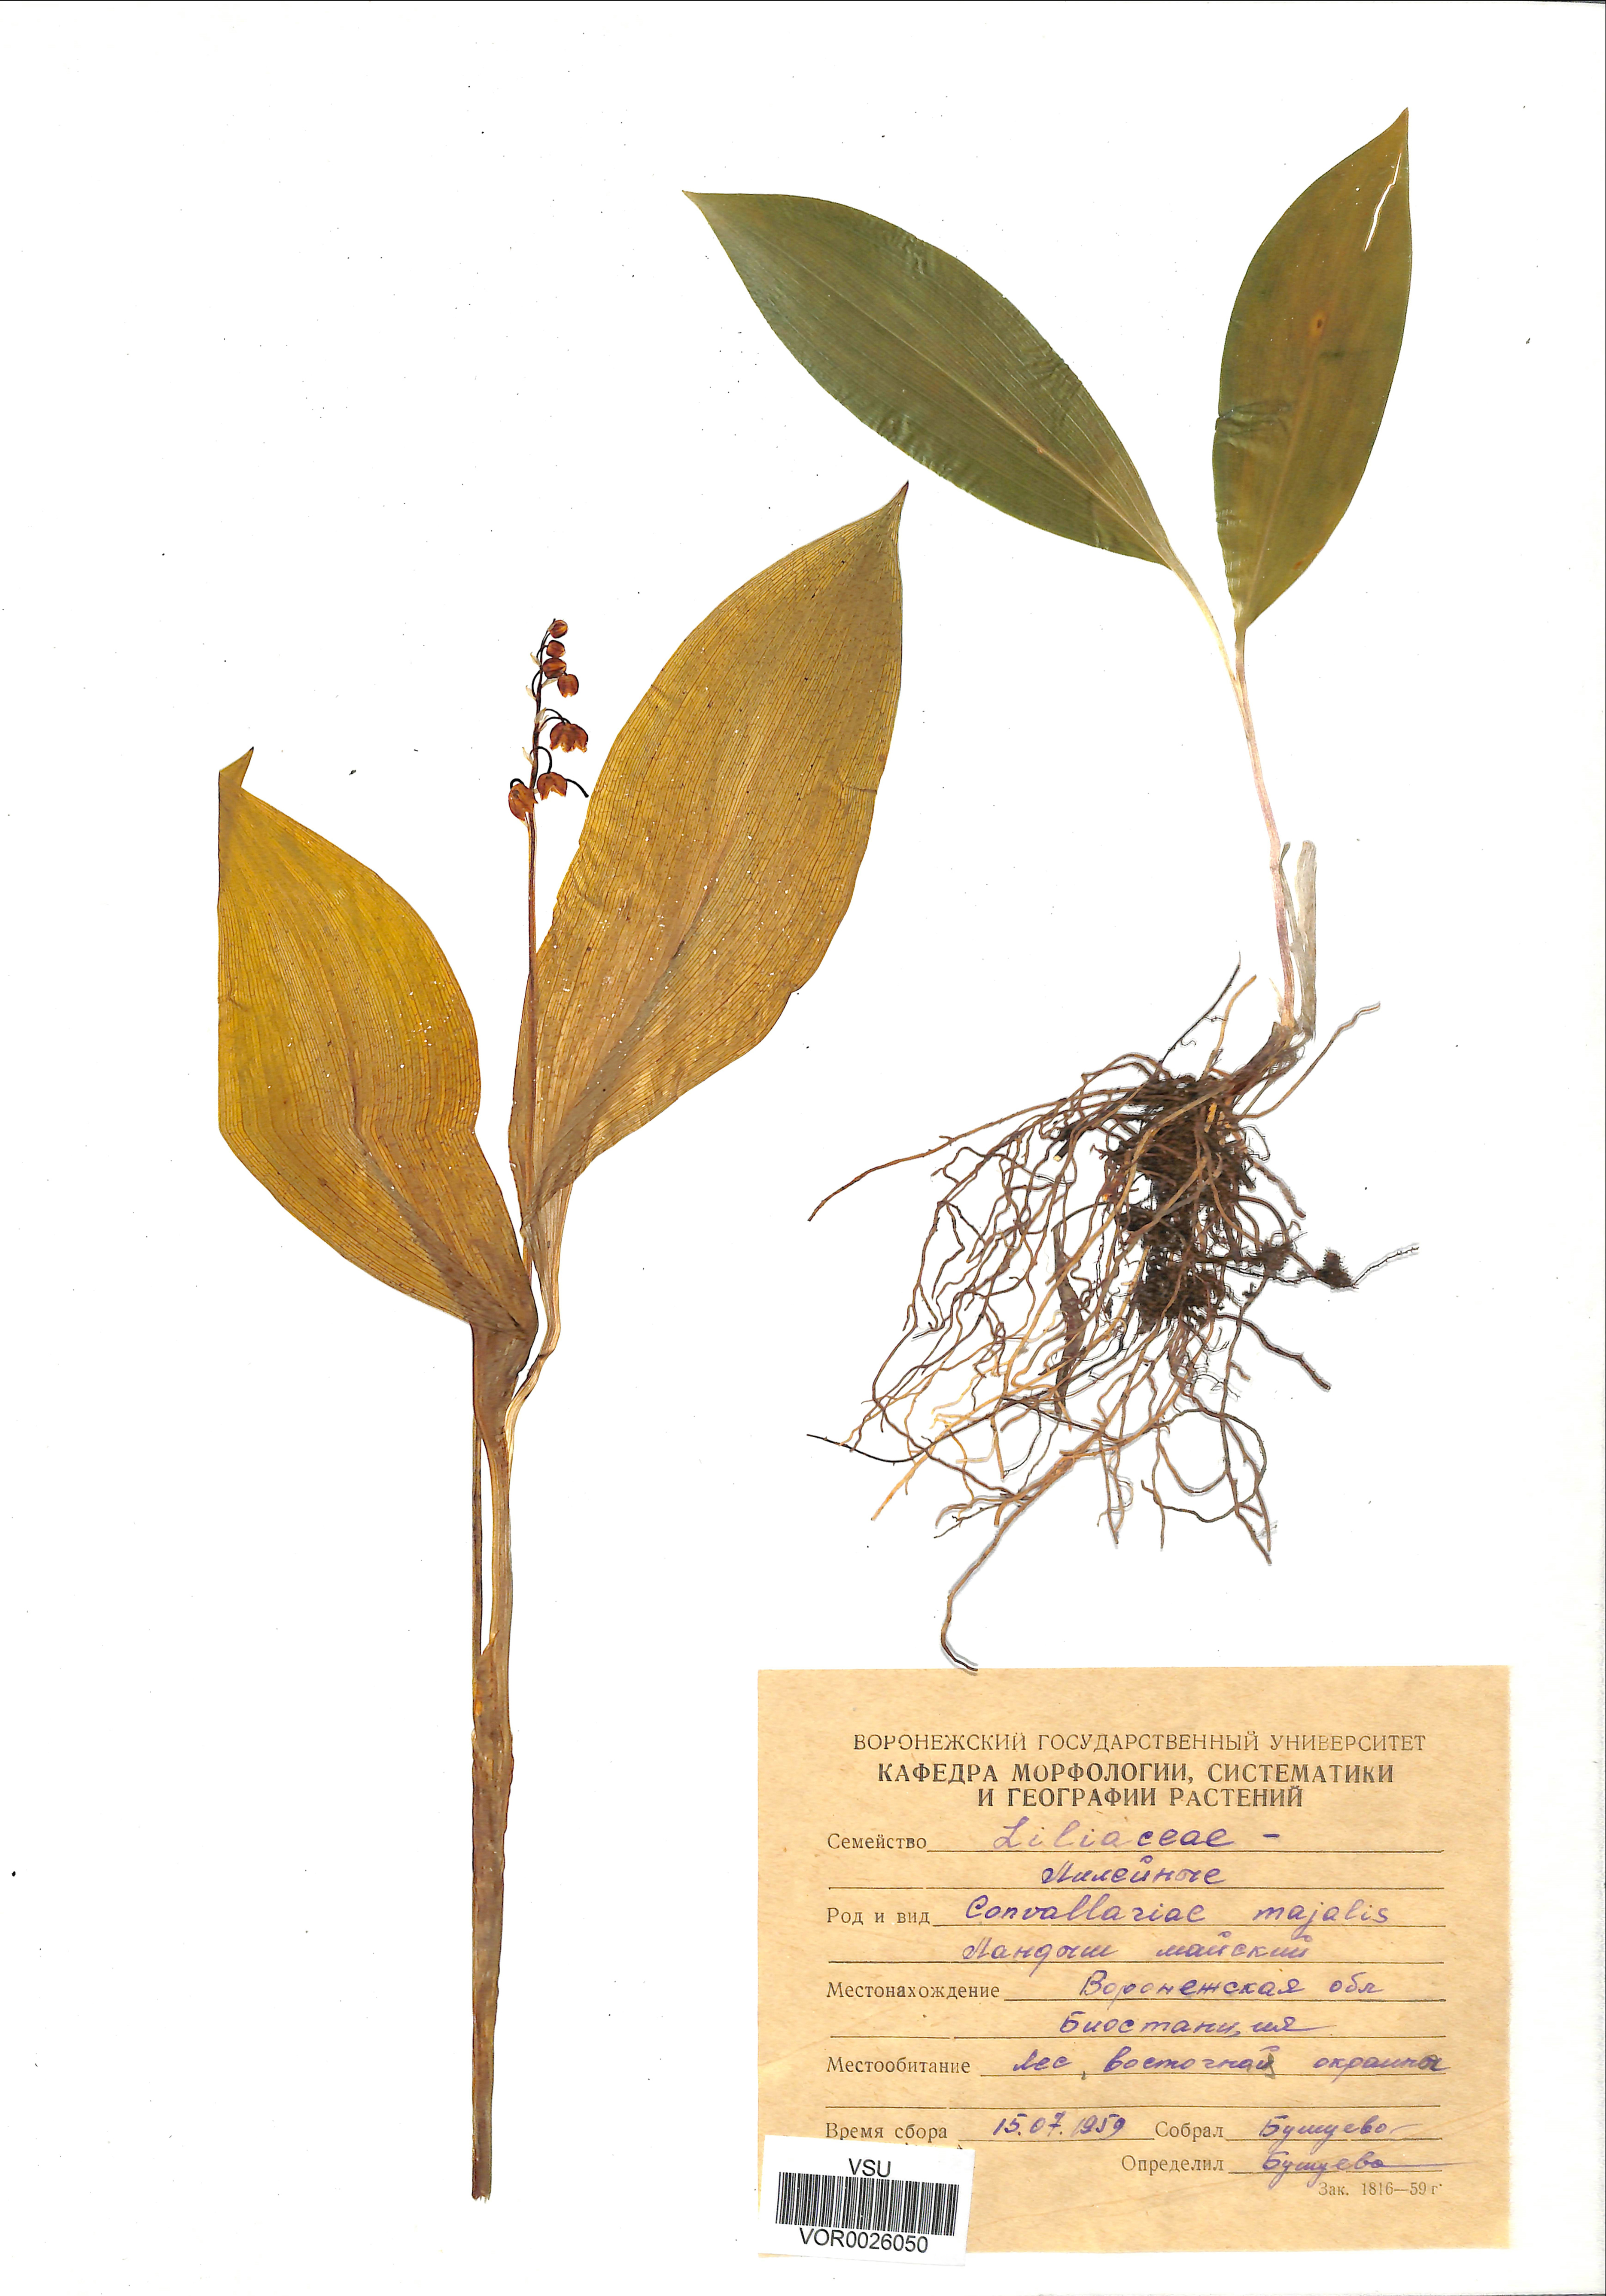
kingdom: Plantae
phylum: Tracheophyta
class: Liliopsida
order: Asparagales
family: Asparagaceae
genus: Convallaria
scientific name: Convallaria majalis
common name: Lily-of-the-valley
